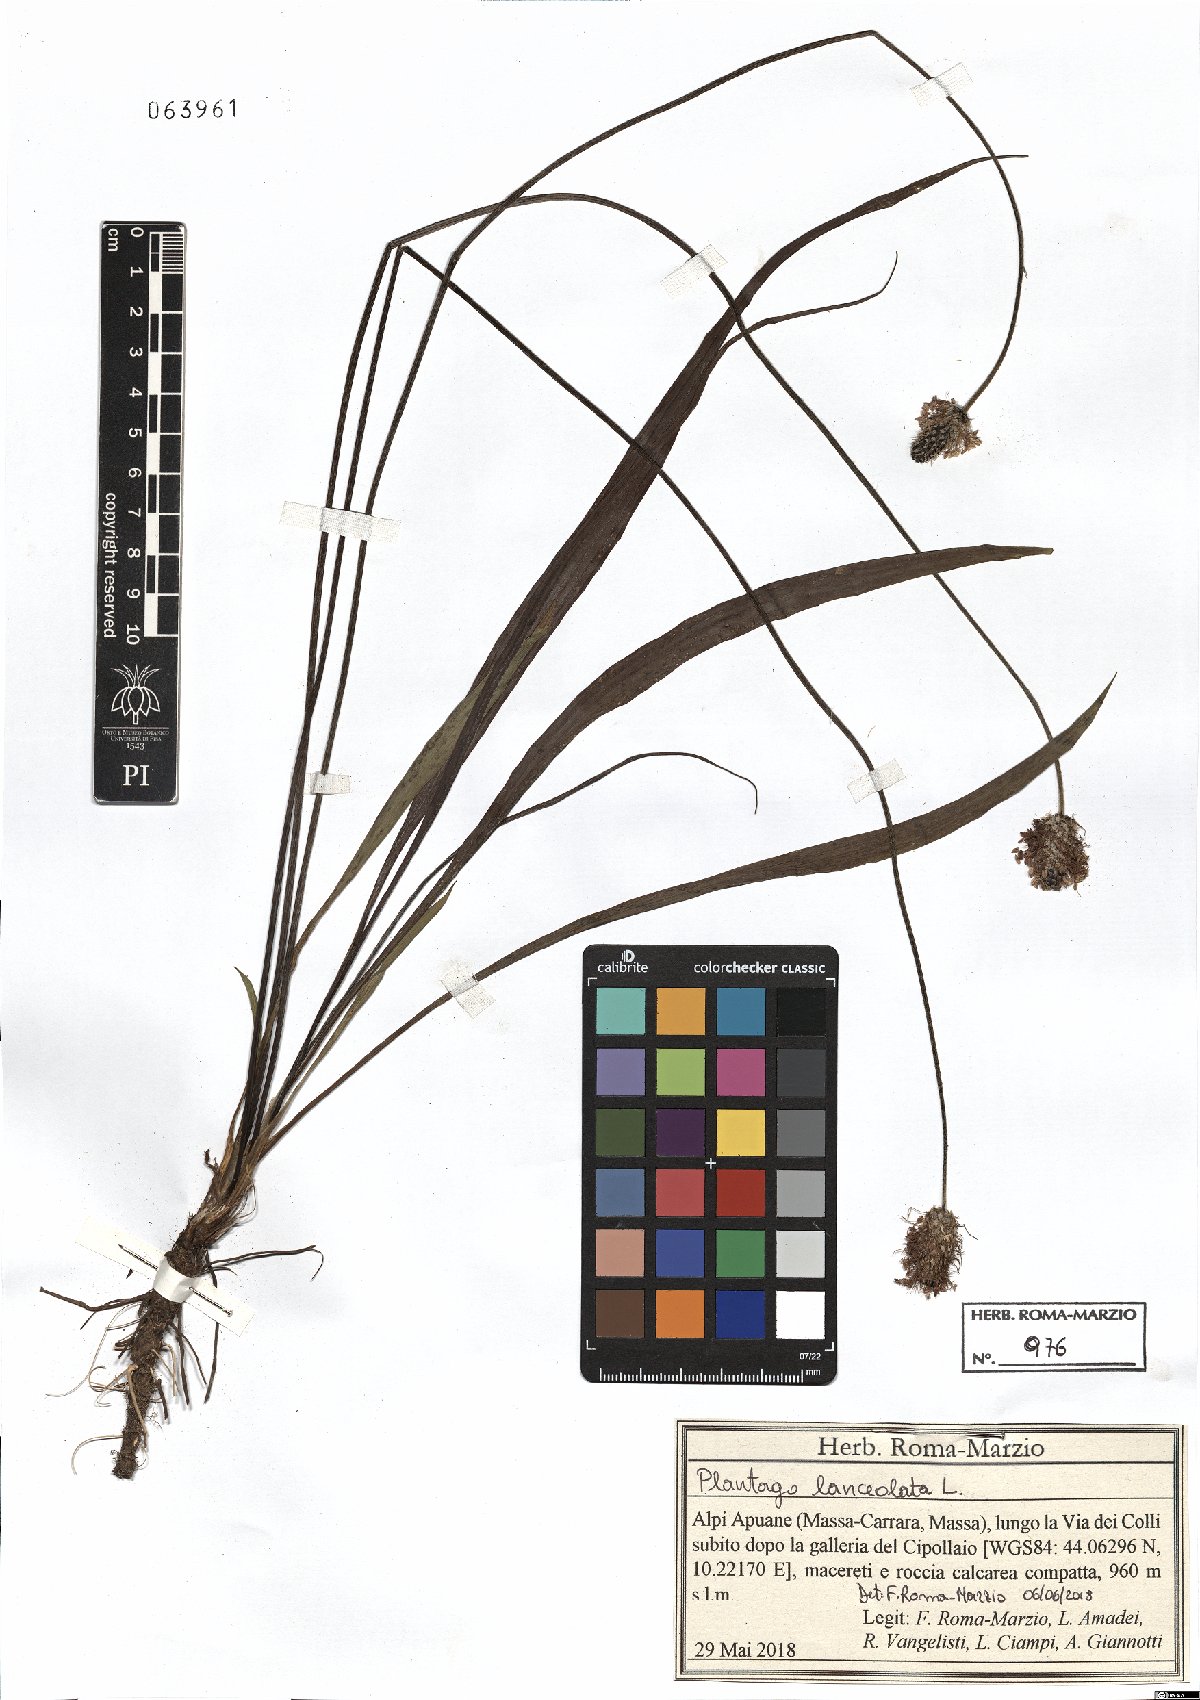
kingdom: Plantae
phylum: Tracheophyta
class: Magnoliopsida
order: Lamiales
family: Plantaginaceae
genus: Plantago
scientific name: Plantago lanceolata
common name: Ribwort plantain
